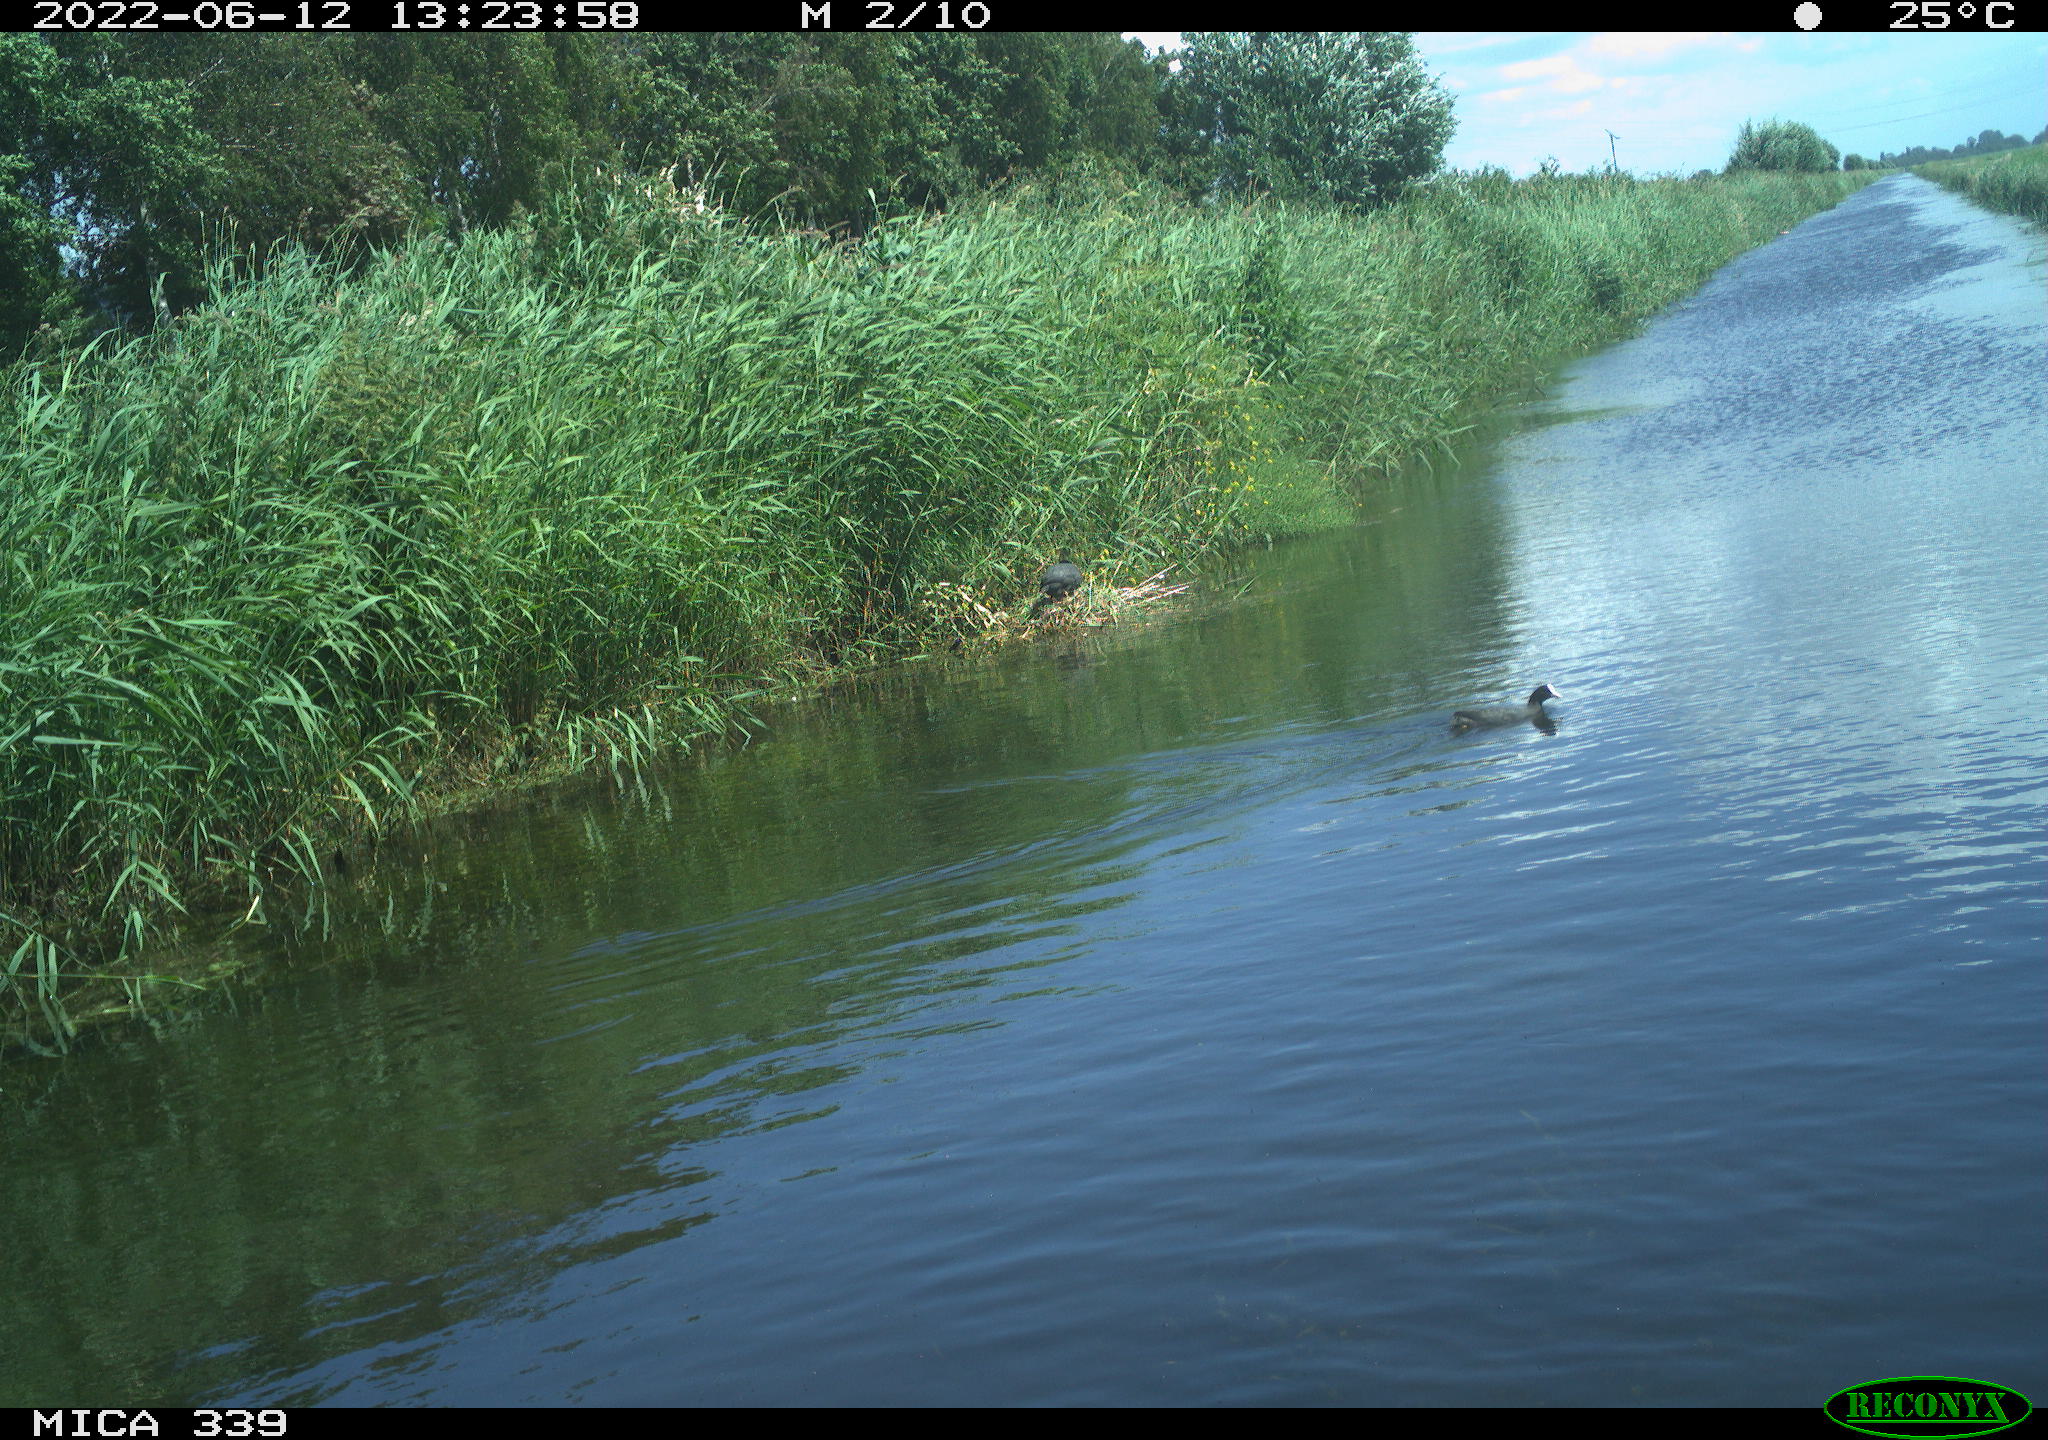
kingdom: Animalia
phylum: Chordata
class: Aves
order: Pelecaniformes
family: Ardeidae
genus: Ardea
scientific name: Ardea cinerea
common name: Grey heron
